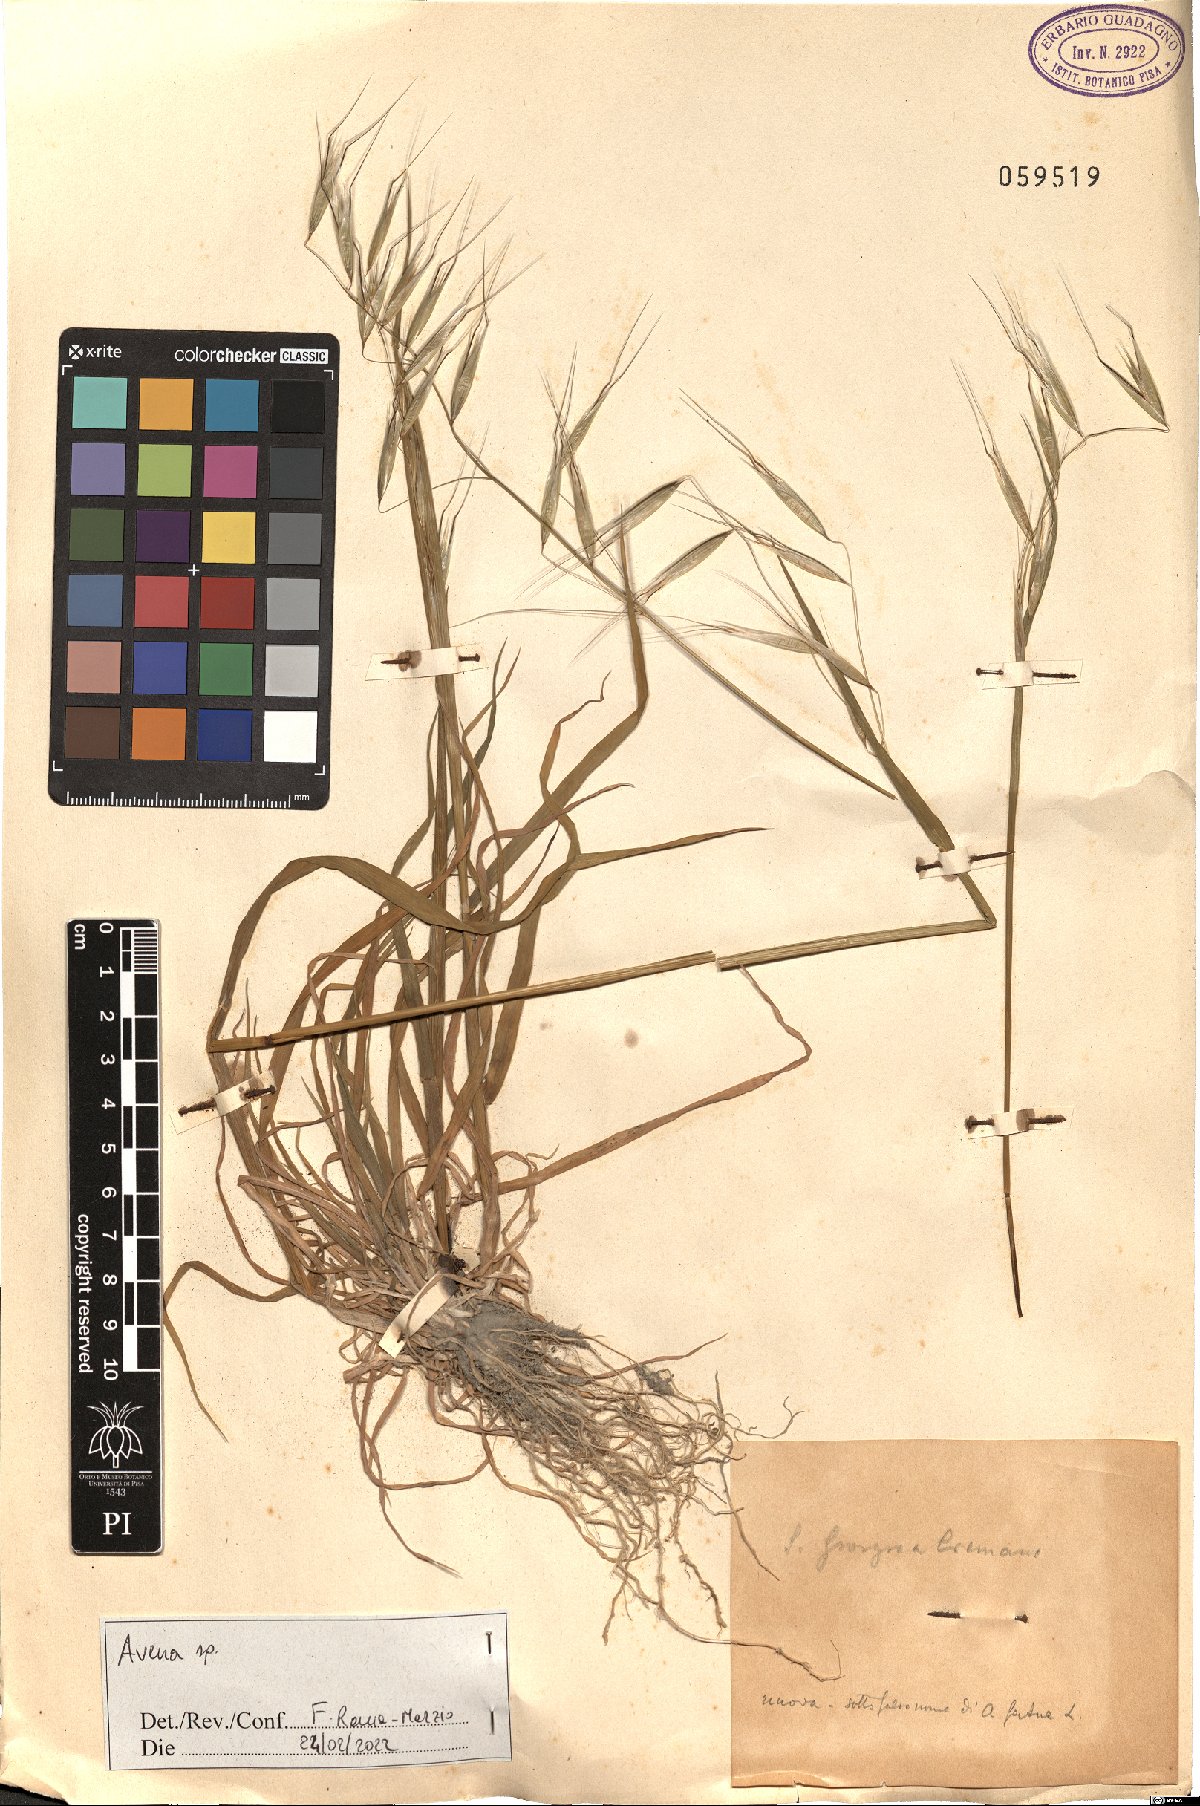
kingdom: Plantae
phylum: Tracheophyta
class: Liliopsida
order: Poales
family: Poaceae
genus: Avena
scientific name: Avena
